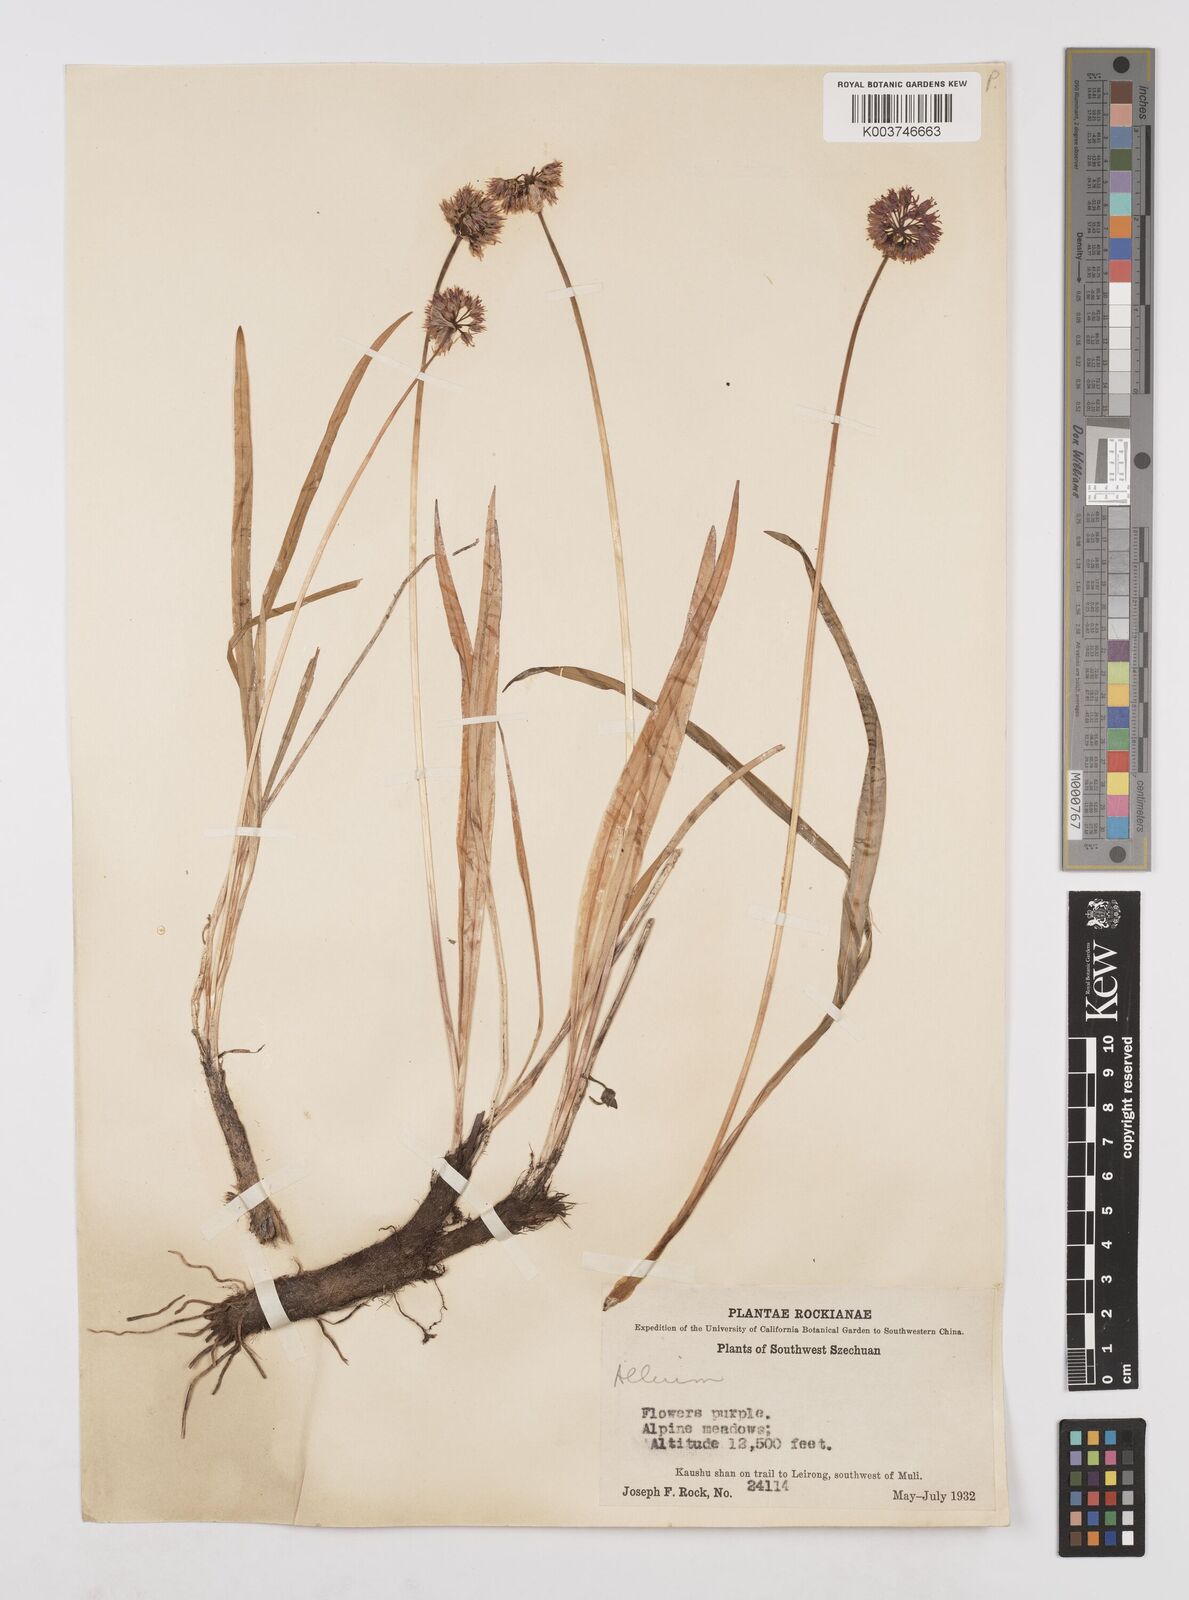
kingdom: Plantae
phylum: Tracheophyta
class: Liliopsida
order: Asparagales
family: Amaryllidaceae
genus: Allium
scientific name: Allium prattii
